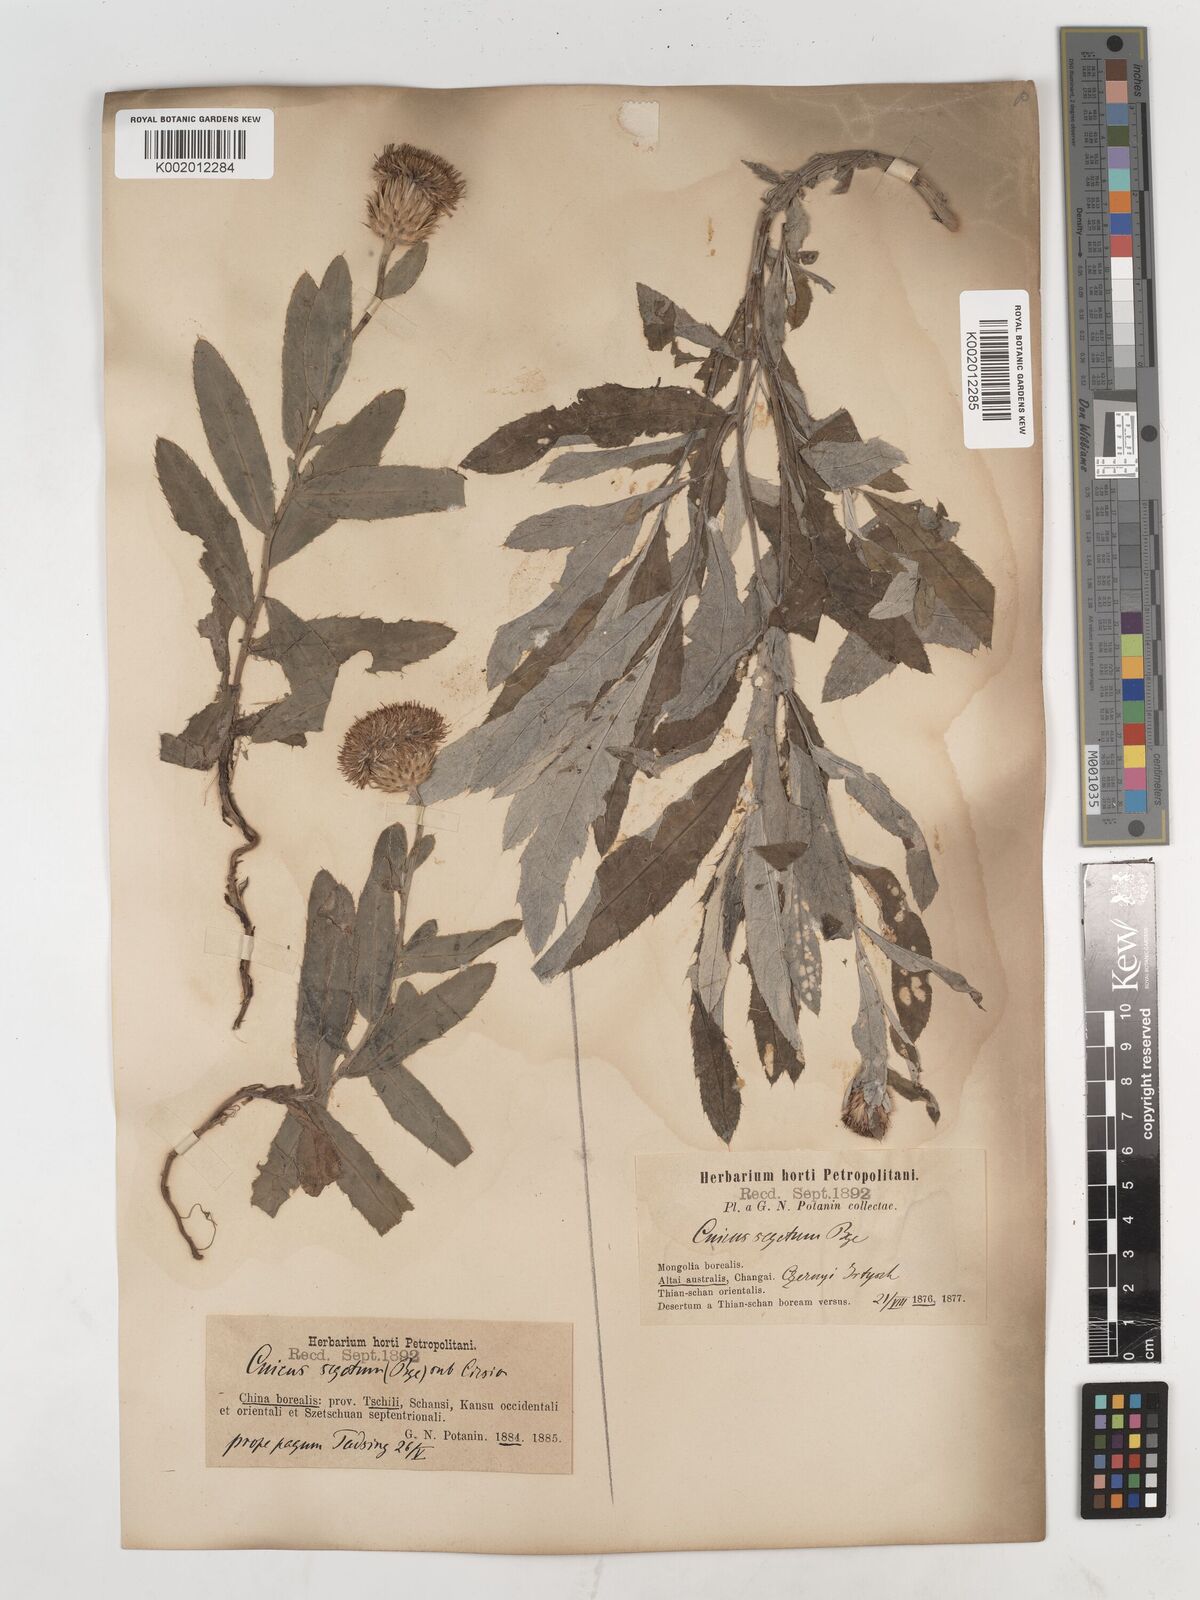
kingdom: Plantae
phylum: Tracheophyta
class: Magnoliopsida
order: Asterales
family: Asteraceae
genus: Cirsium
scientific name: Cirsium arvense
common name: Creeping thistle
